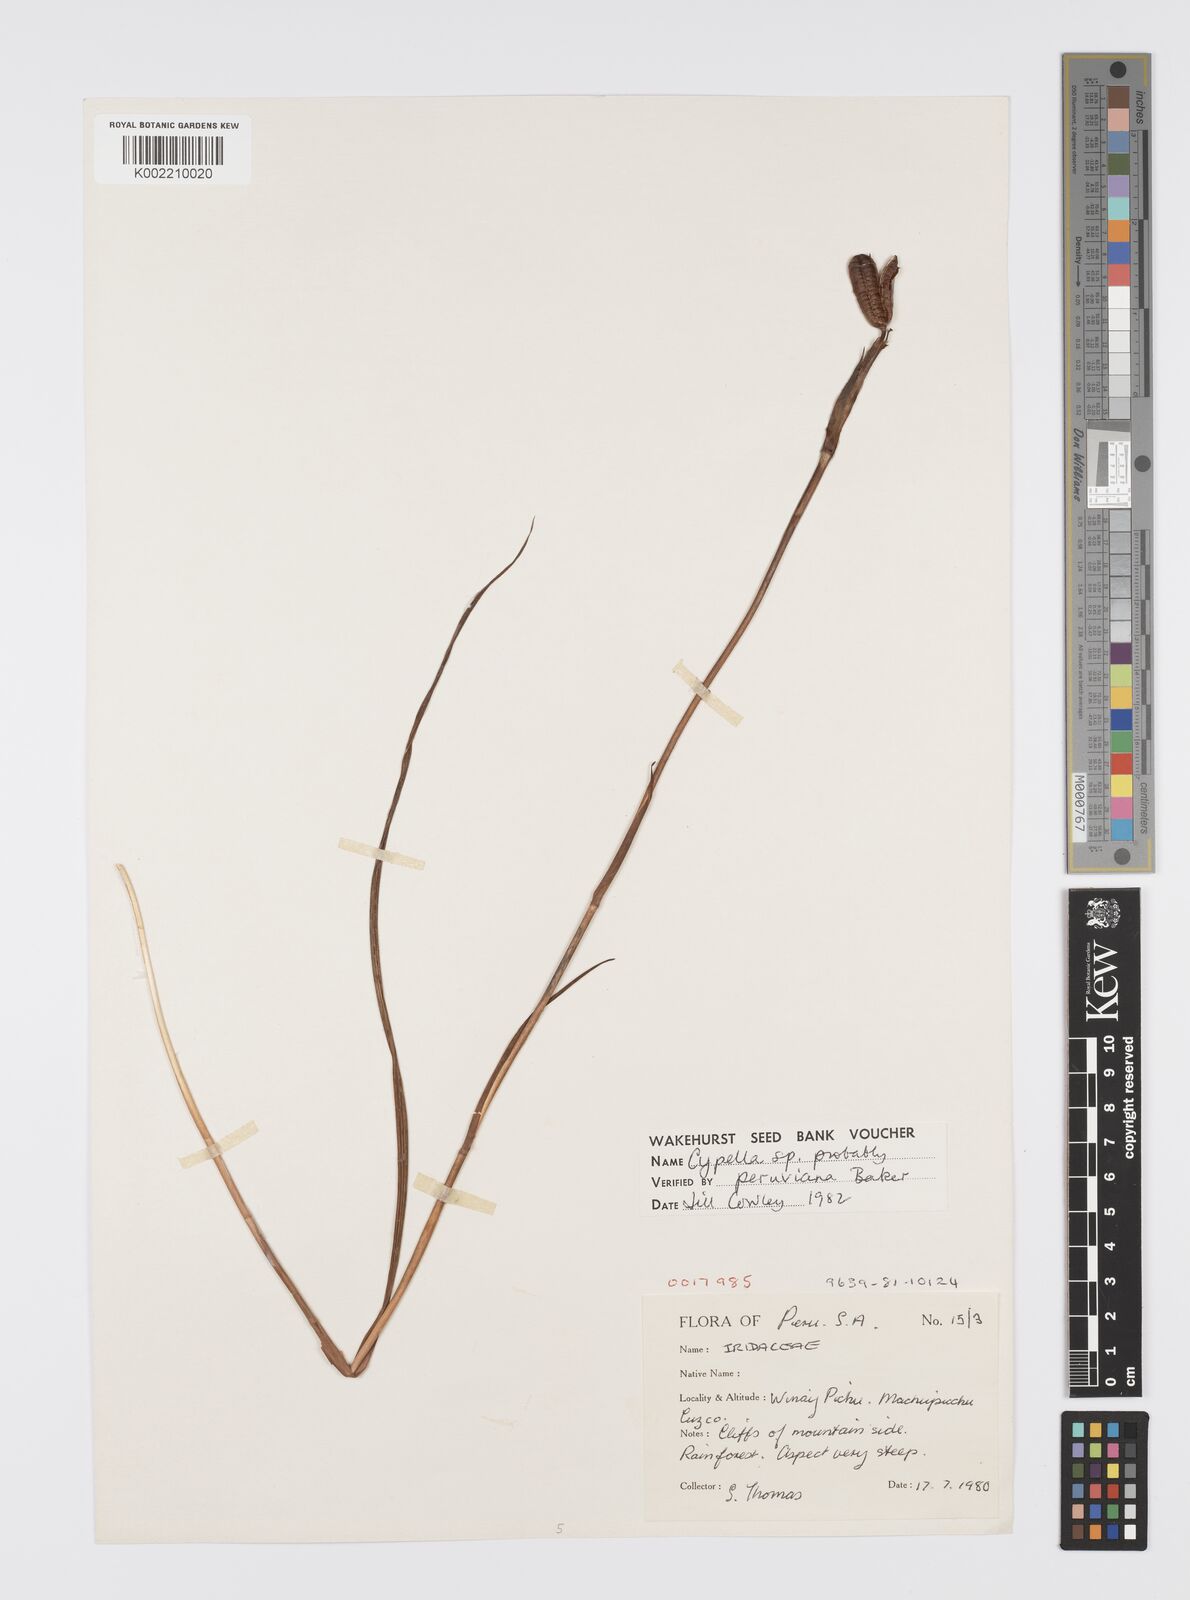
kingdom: Plantae
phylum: Tracheophyta
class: Liliopsida
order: Asparagales
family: Iridaceae
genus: Hesperoxiphion
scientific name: Hesperoxiphion peruvianum
